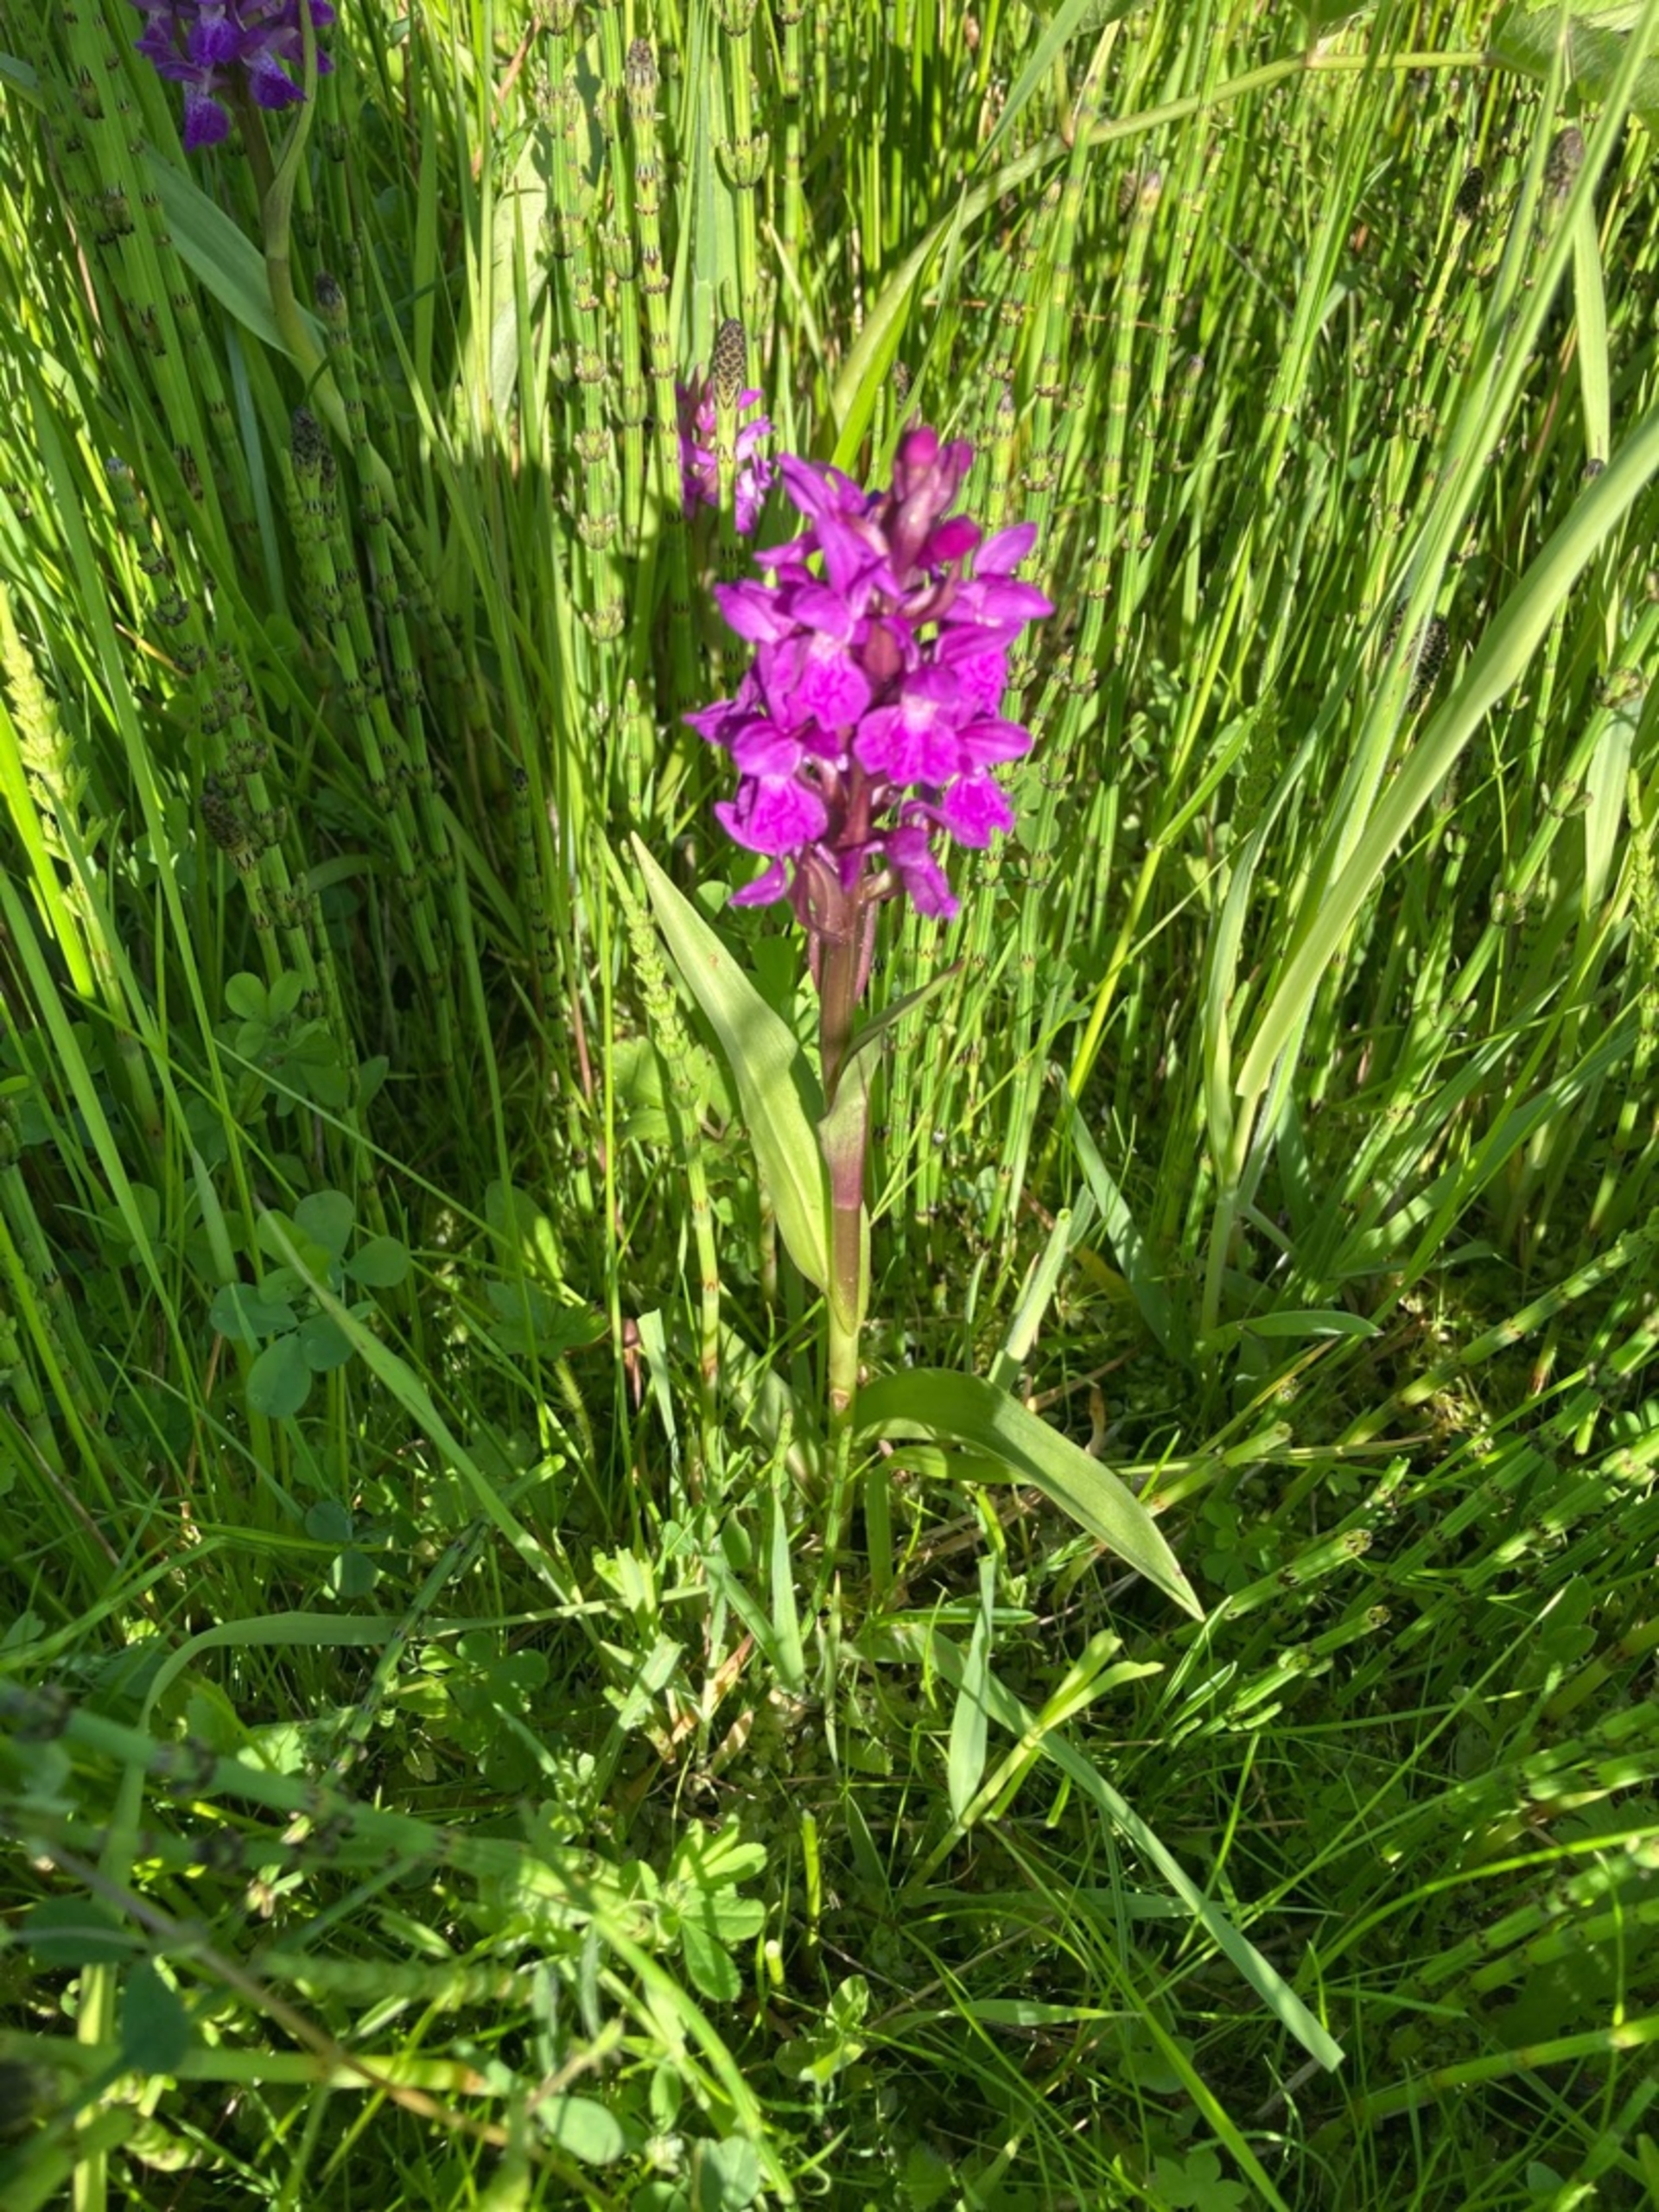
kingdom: Plantae
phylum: Tracheophyta
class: Liliopsida
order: Asparagales
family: Orchidaceae
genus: Dactylorhiza
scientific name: Dactylorhiza majalis
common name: Maj-gøgeurt
